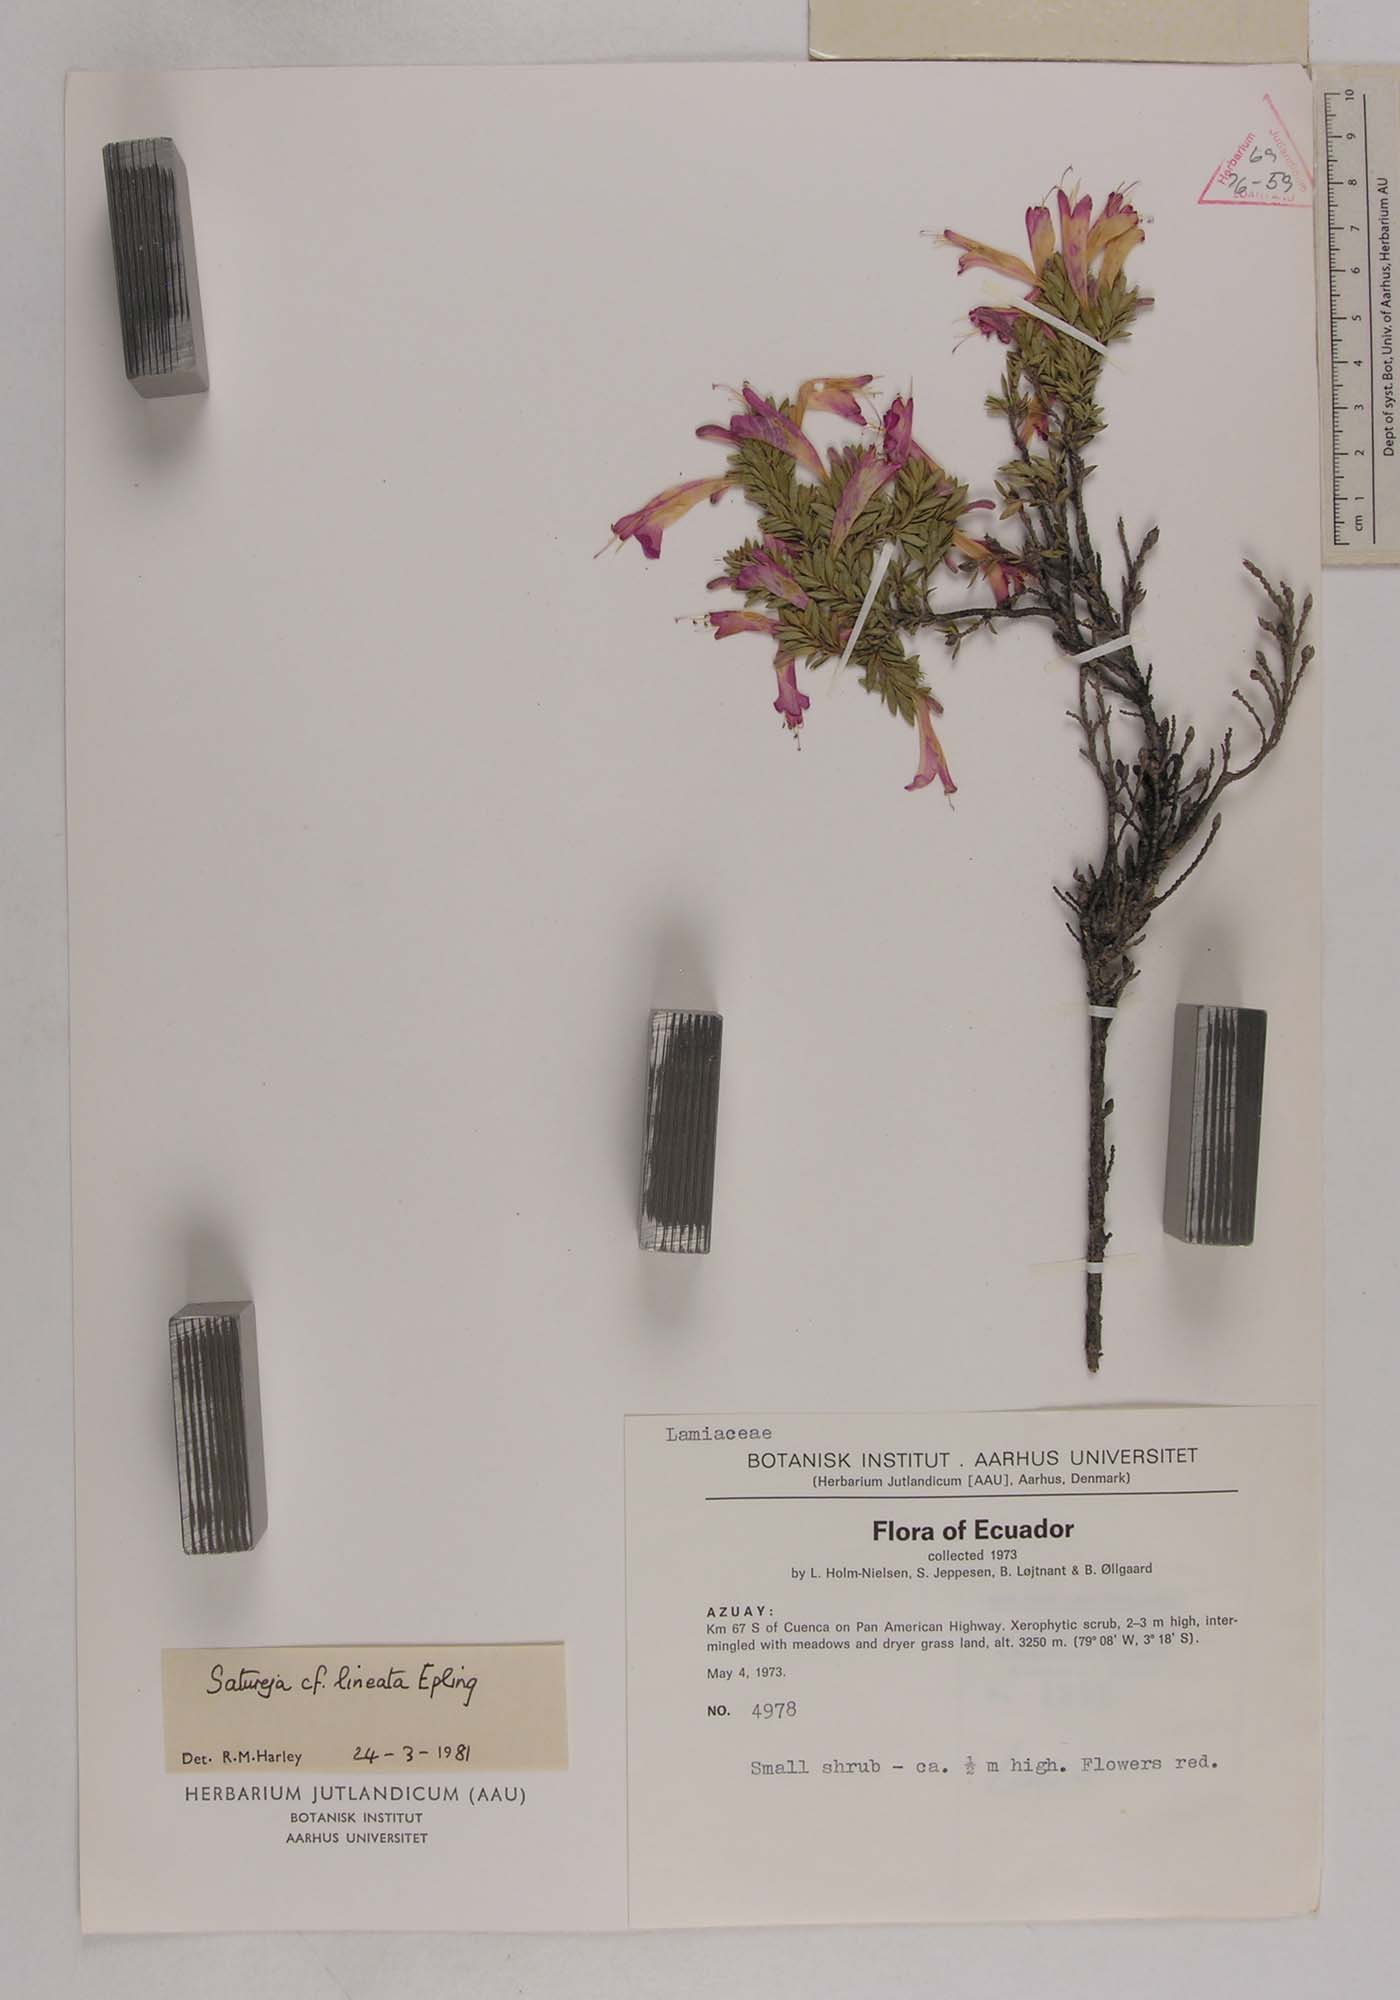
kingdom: Plantae
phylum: Tracheophyta
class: Magnoliopsida
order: Lamiales
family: Lamiaceae
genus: Clinopodium
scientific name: Clinopodium taxifolium
